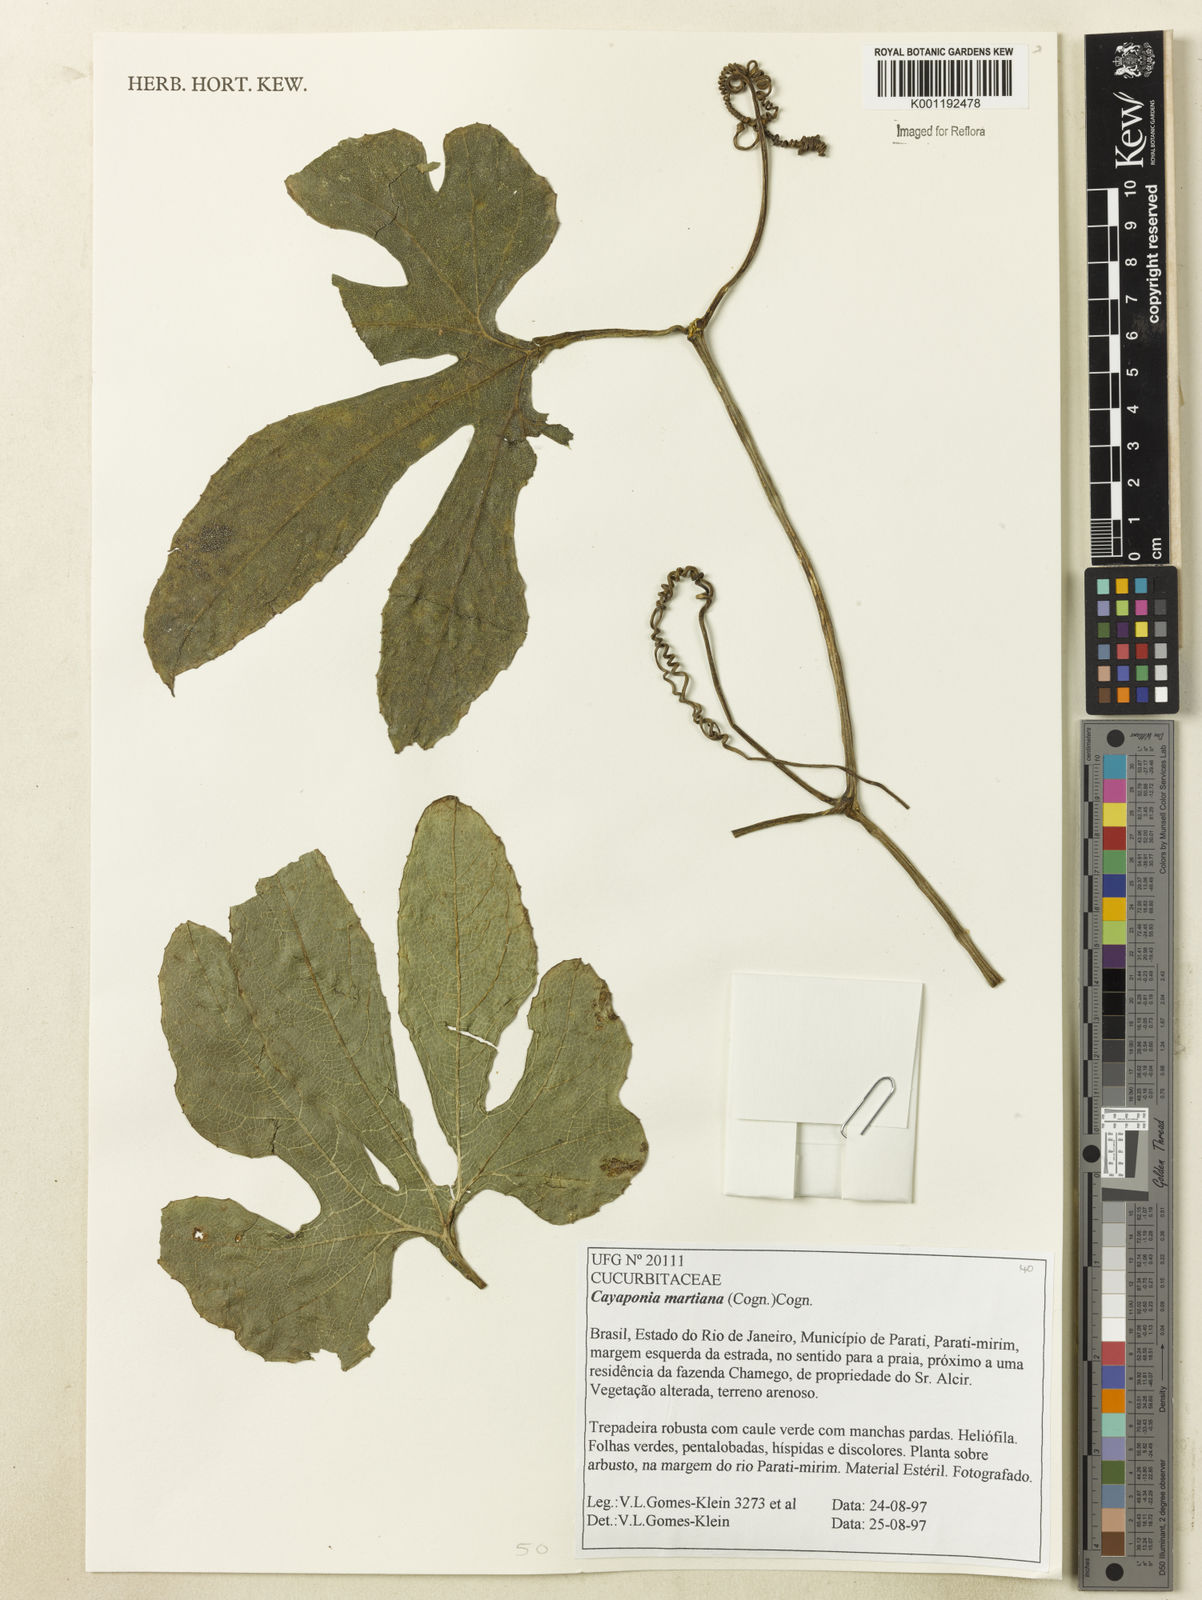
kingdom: Plantae
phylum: Tracheophyta
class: Magnoliopsida
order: Cucurbitales
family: Cucurbitaceae
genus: Cayaponia
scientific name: Cayaponia martiana
